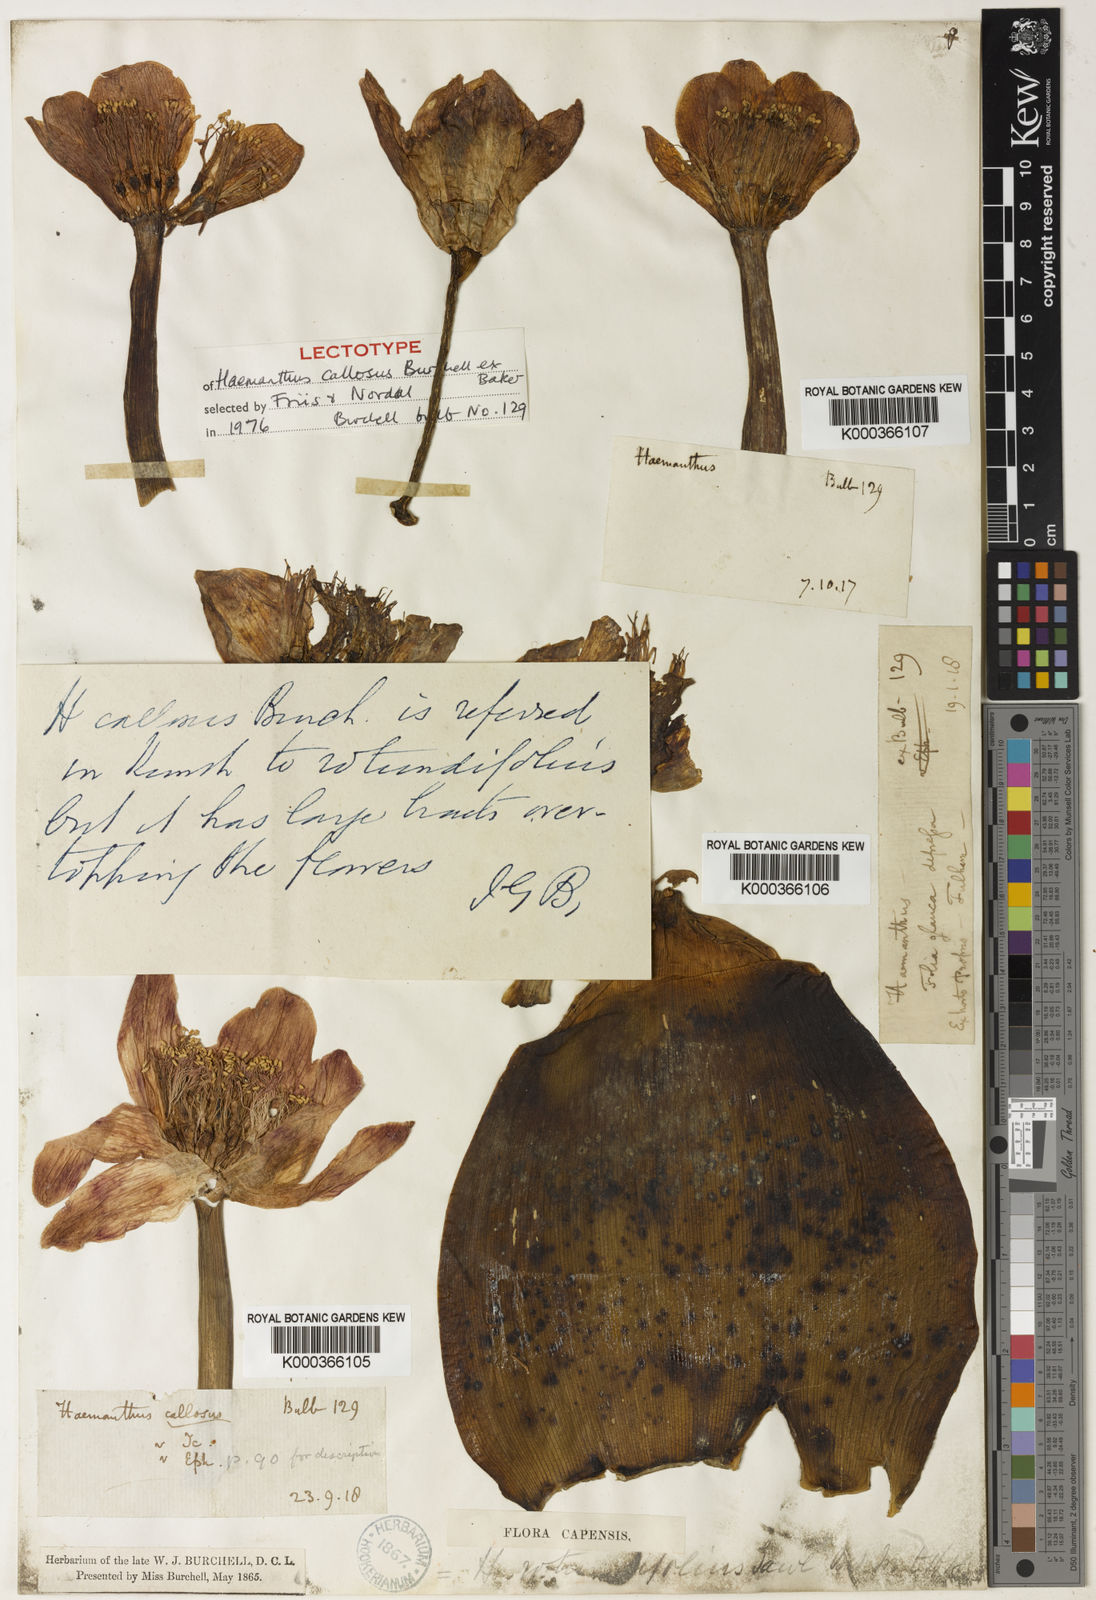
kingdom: Plantae
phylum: Tracheophyta
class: Liliopsida
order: Asparagales
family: Amaryllidaceae
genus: Haemanthus
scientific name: Haemanthus coccineus
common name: Cape-tulip
